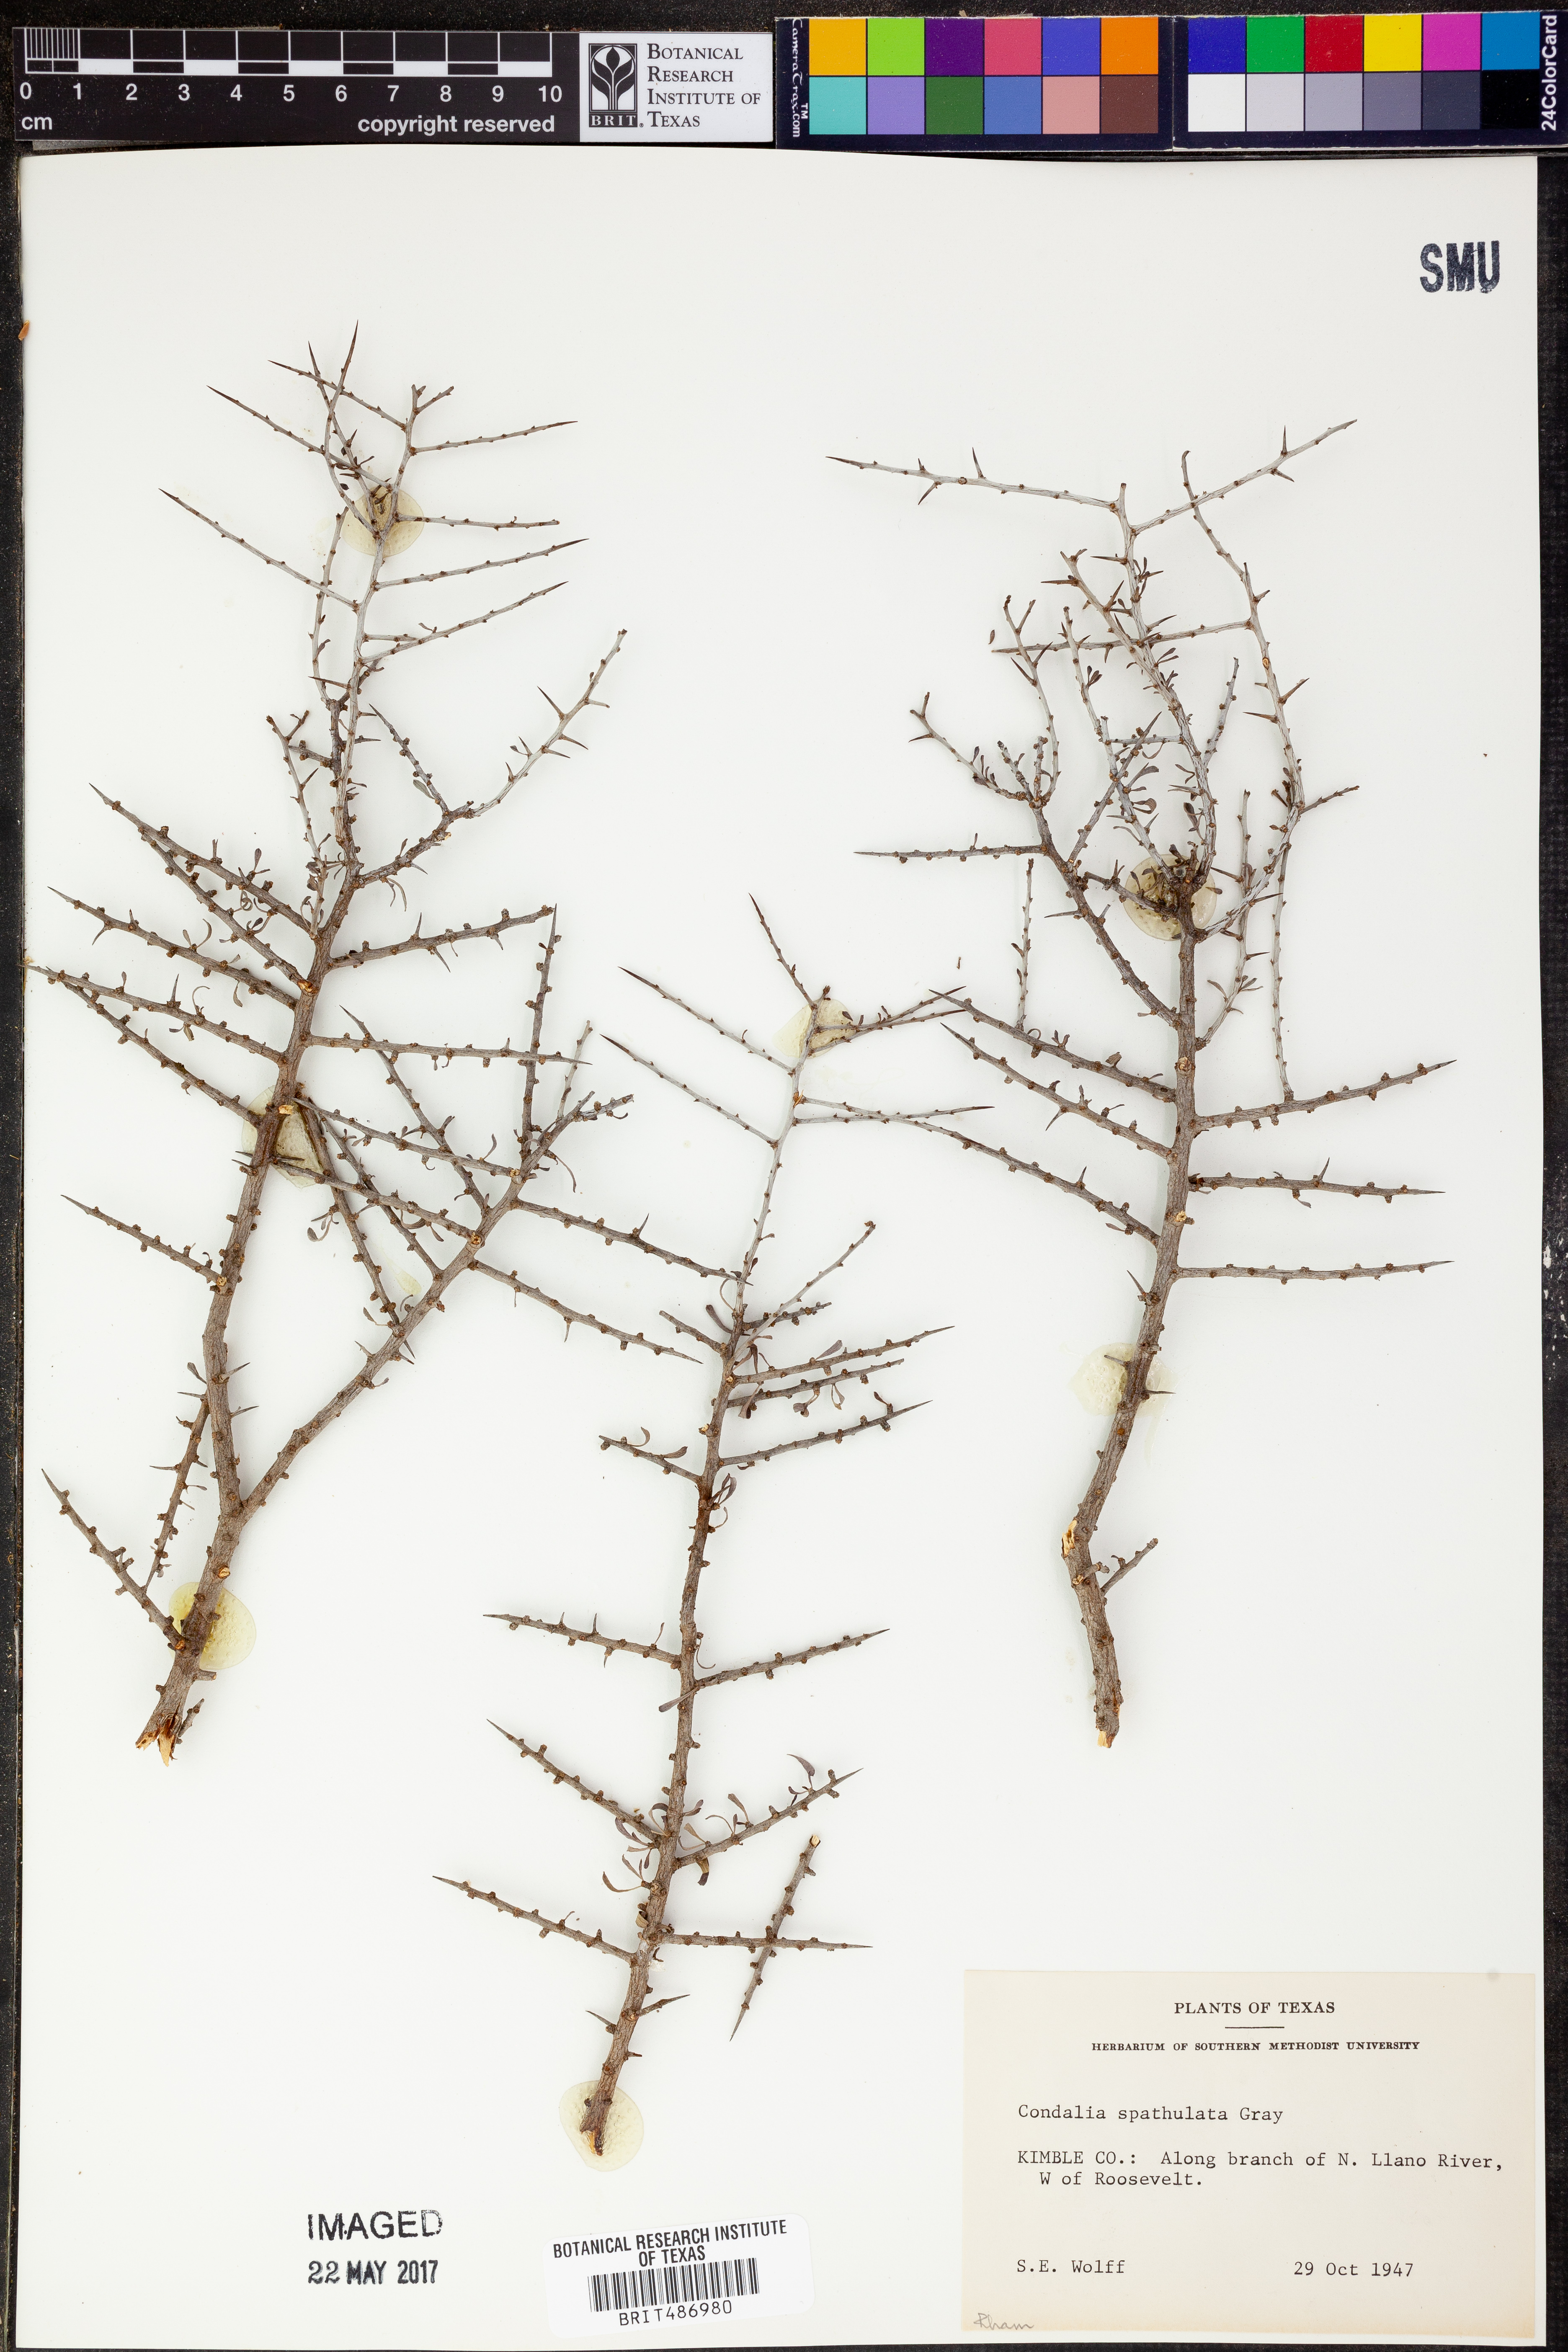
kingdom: Plantae
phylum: Tracheophyta
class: Magnoliopsida
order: Rosales
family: Rhamnaceae
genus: Condalia
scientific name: Condalia spathulata
